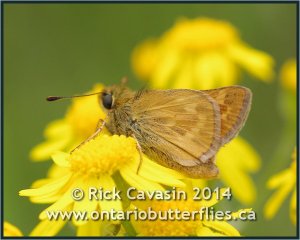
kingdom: Animalia
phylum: Arthropoda
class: Insecta
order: Lepidoptera
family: Hesperiidae
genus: Hesperia
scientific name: Hesperia sassacus
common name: Sassacus Skipper
